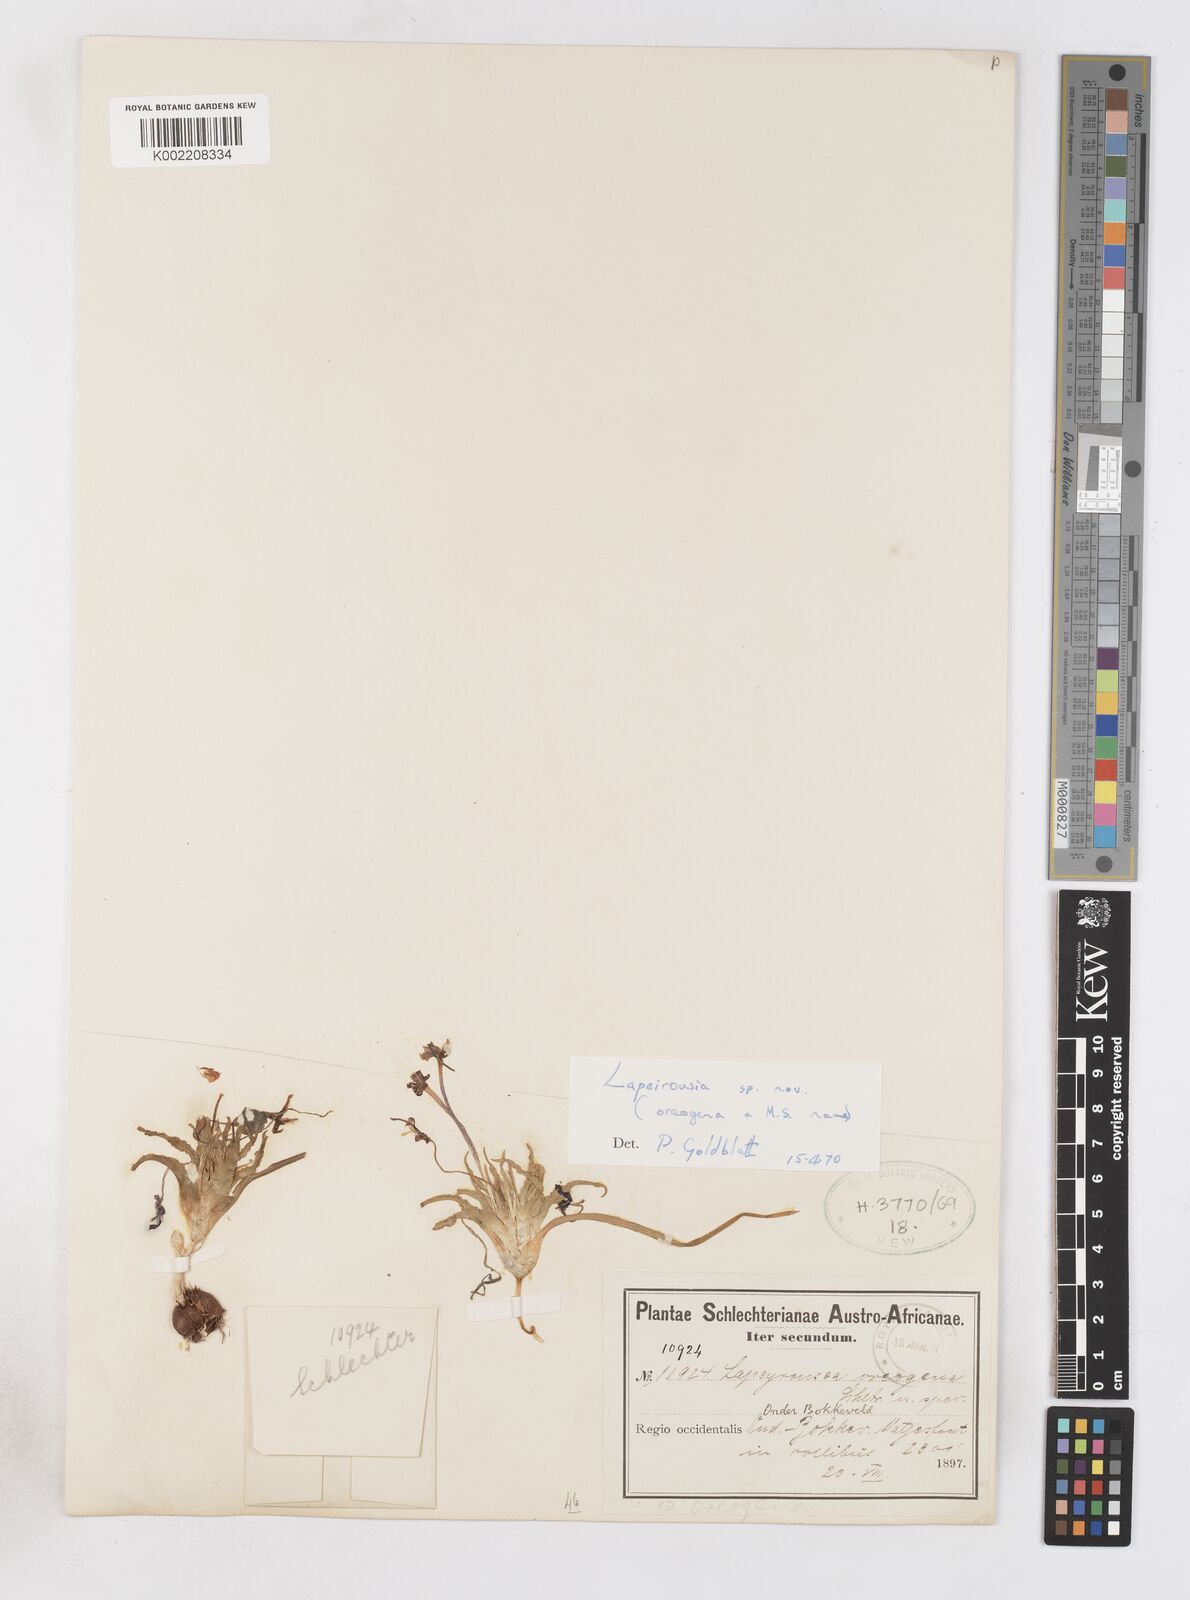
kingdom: Plantae
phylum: Tracheophyta
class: Liliopsida
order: Asparagales
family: Iridaceae
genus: Lapeirousia
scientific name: Lapeirousia oreogena
